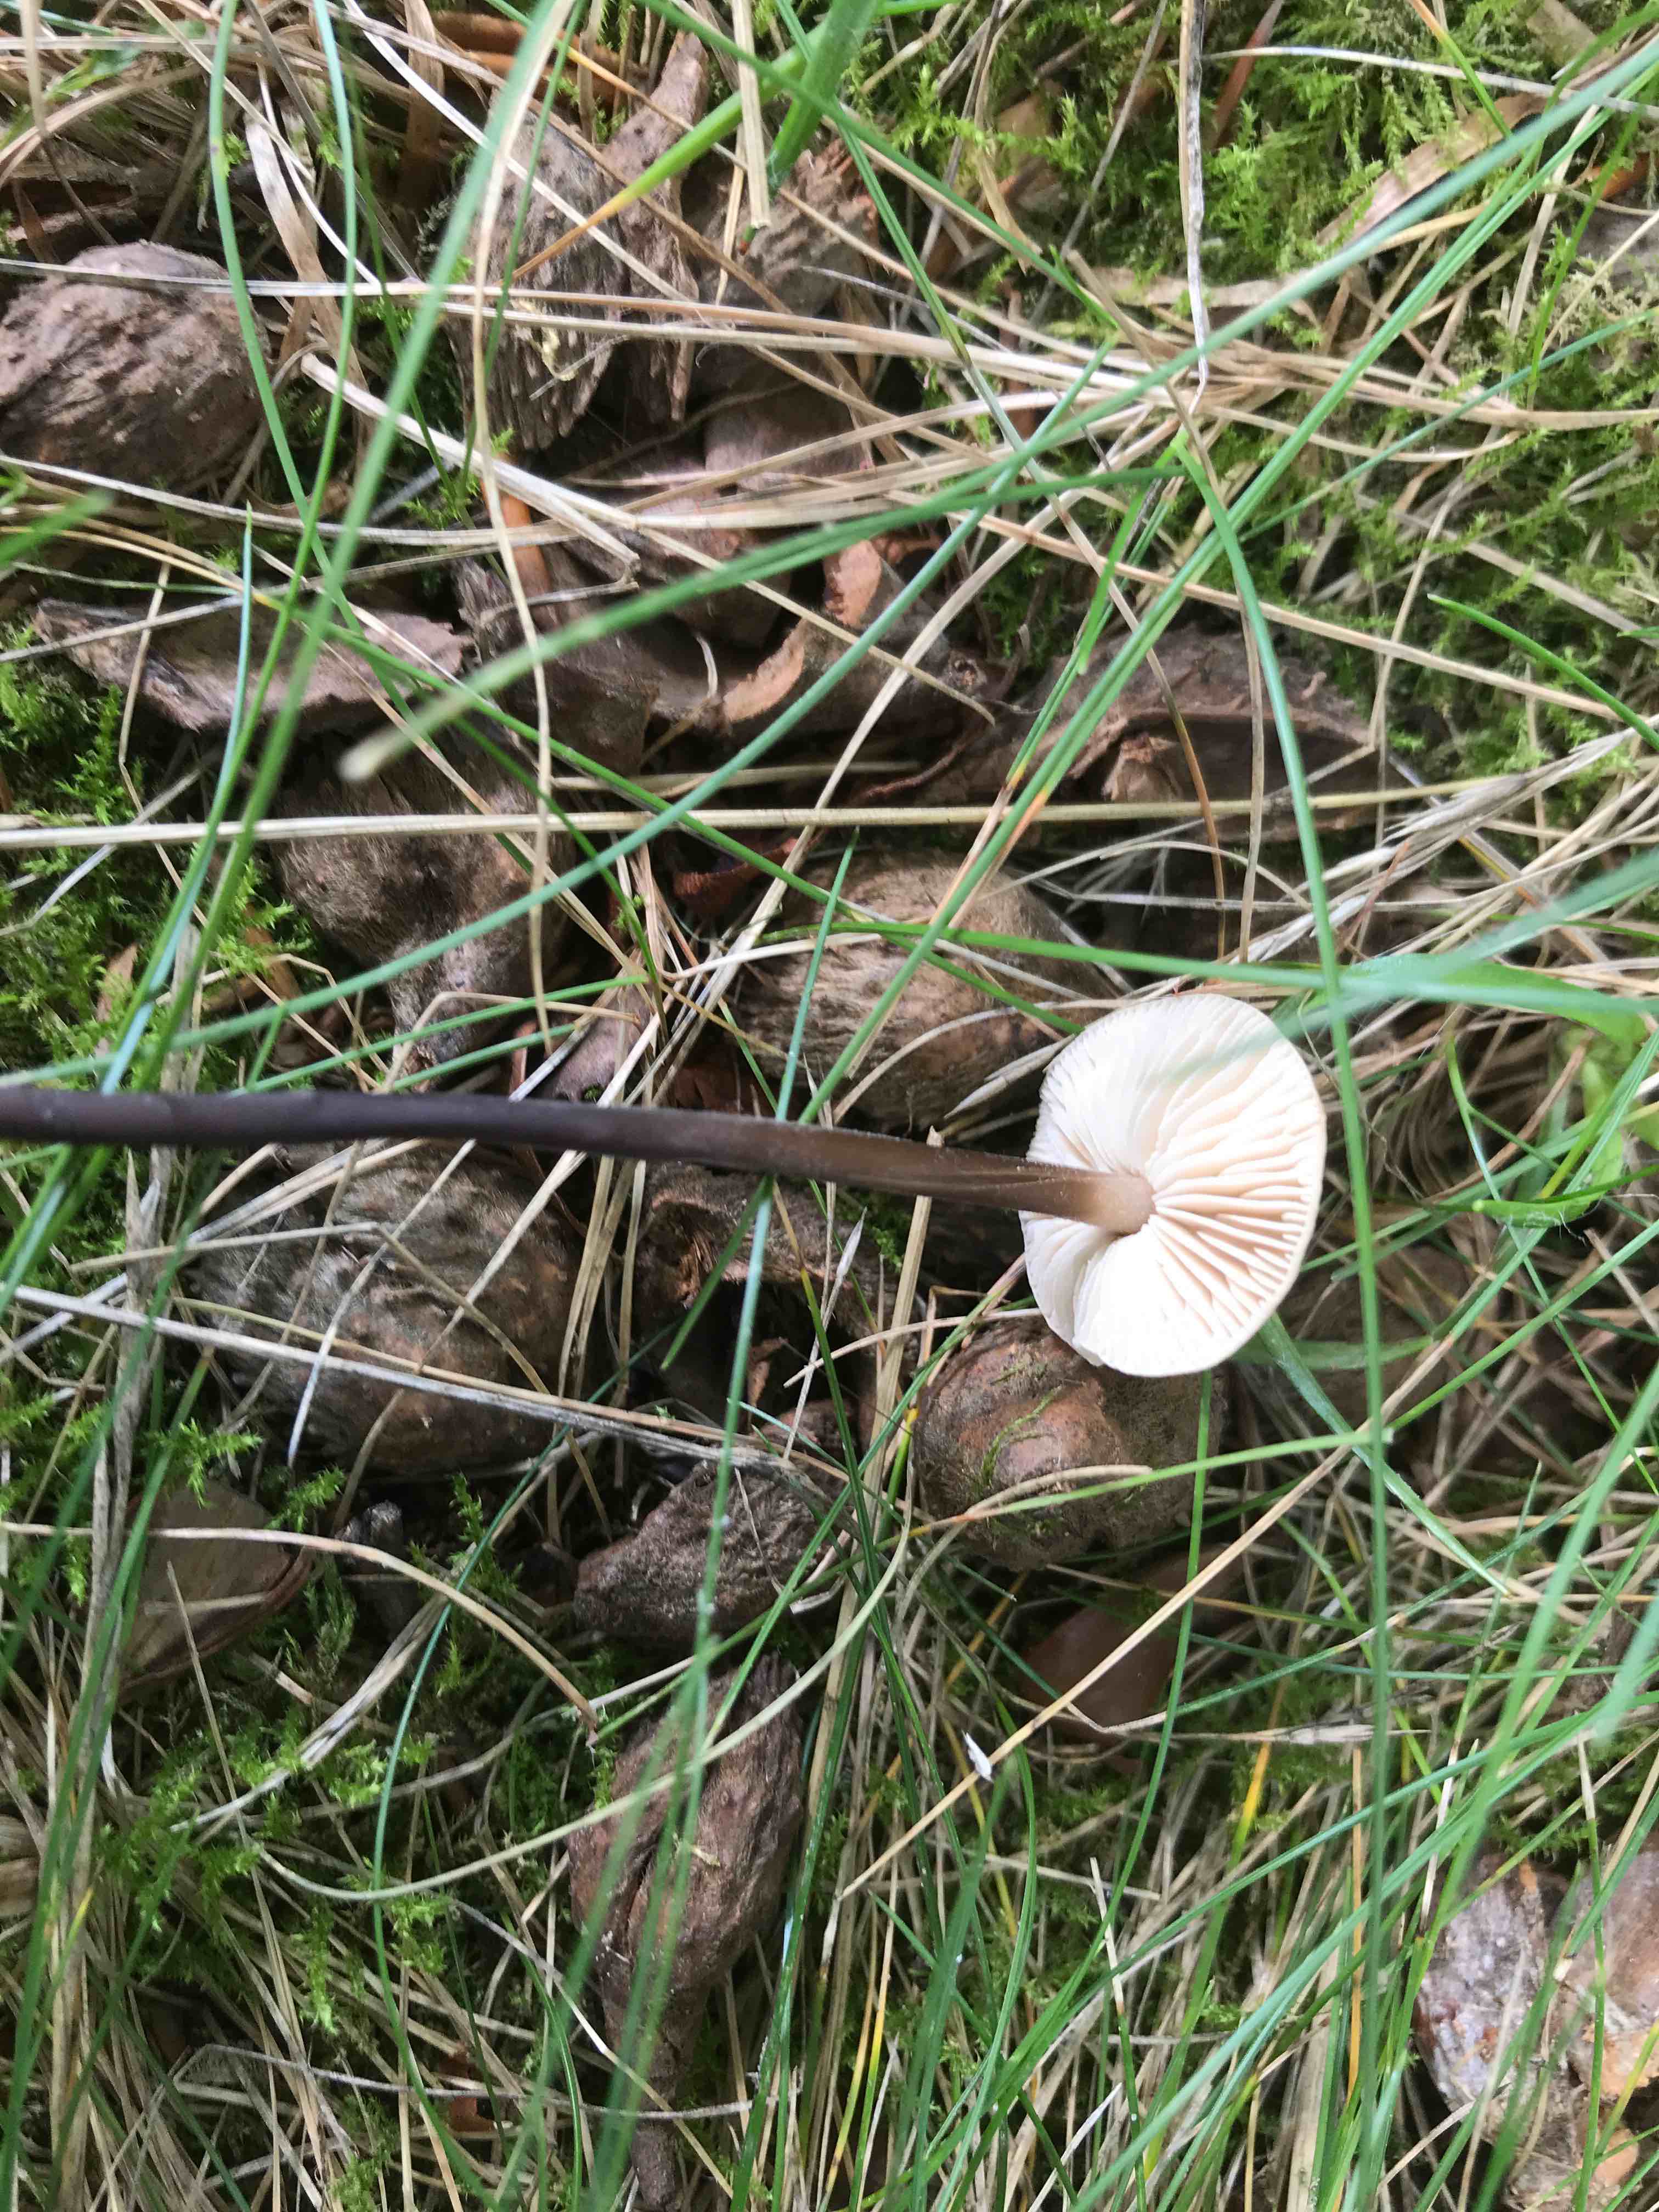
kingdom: Fungi
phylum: Basidiomycota
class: Agaricomycetes
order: Agaricales
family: Omphalotaceae
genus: Mycetinis
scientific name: Mycetinis alliaceus
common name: stor løghat
